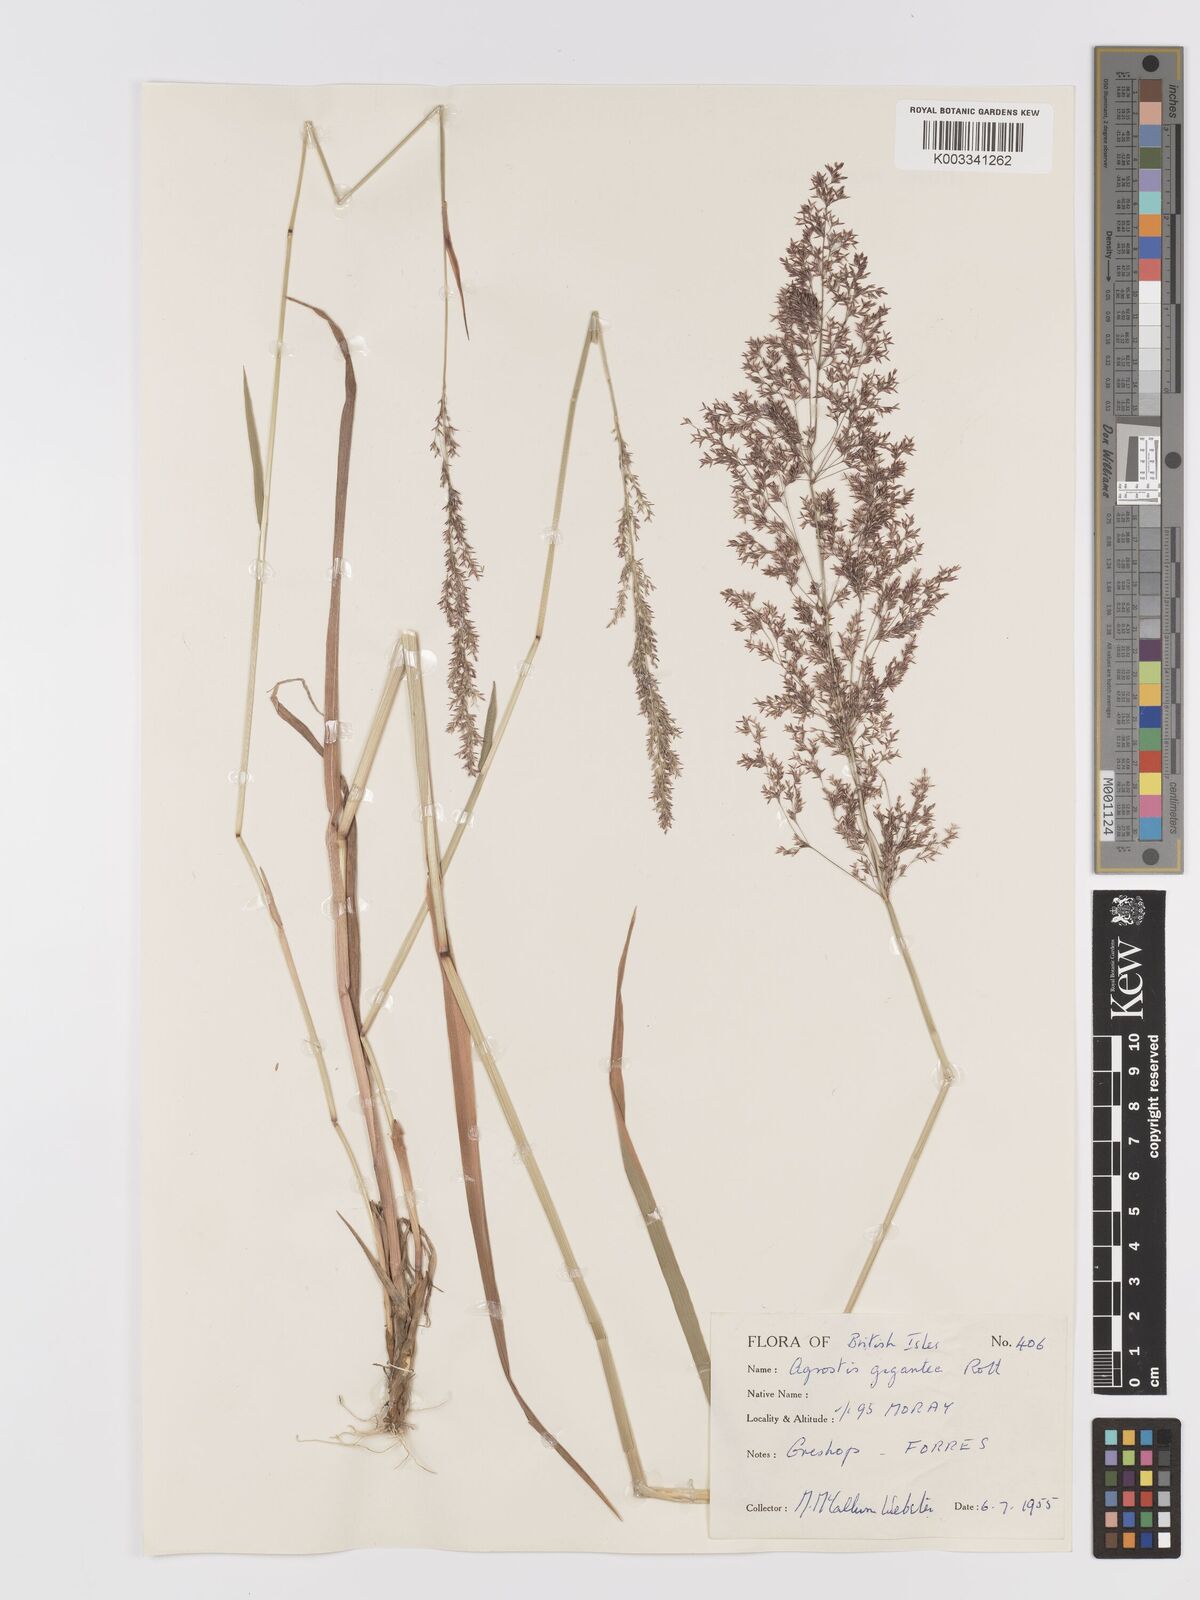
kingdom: Plantae
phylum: Tracheophyta
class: Liliopsida
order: Poales
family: Poaceae
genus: Agrostis
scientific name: Agrostis gigantea
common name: Black bent
